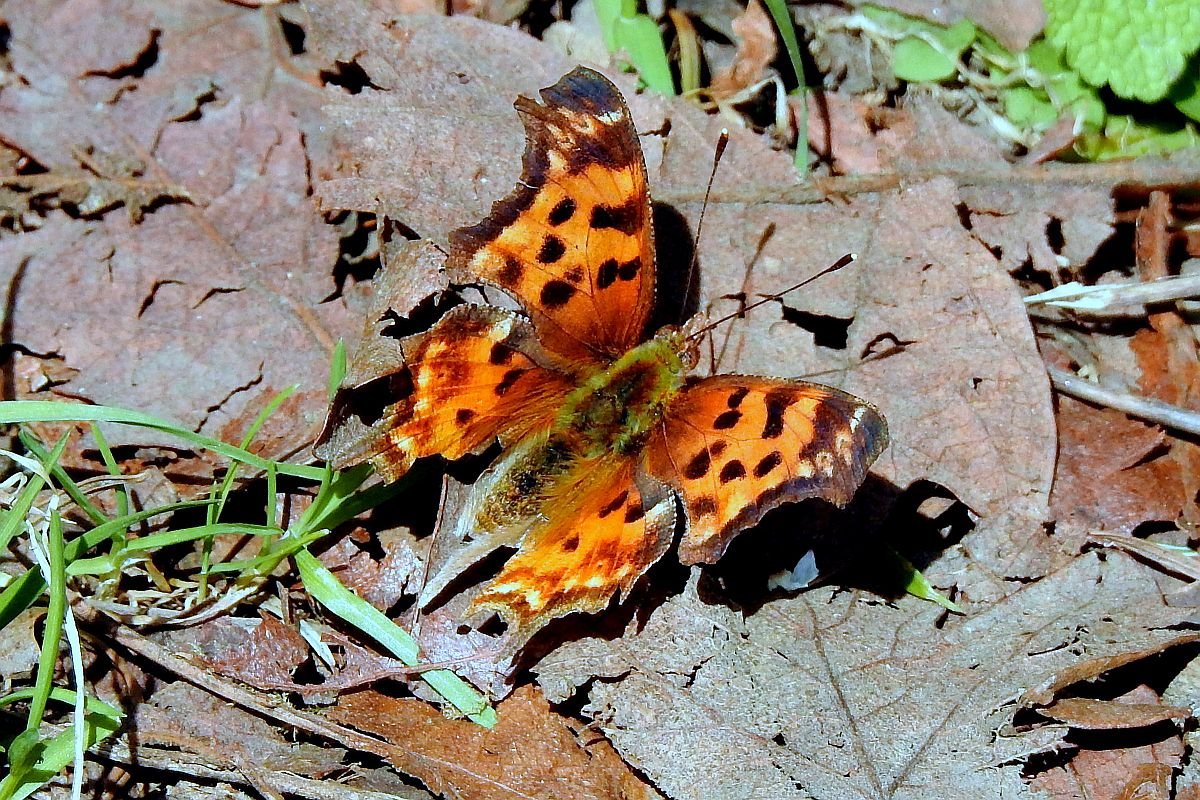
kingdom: Animalia
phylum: Arthropoda
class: Insecta
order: Lepidoptera
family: Nymphalidae
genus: Polygonia
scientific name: Polygonia satyrus
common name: Satyr Comma
